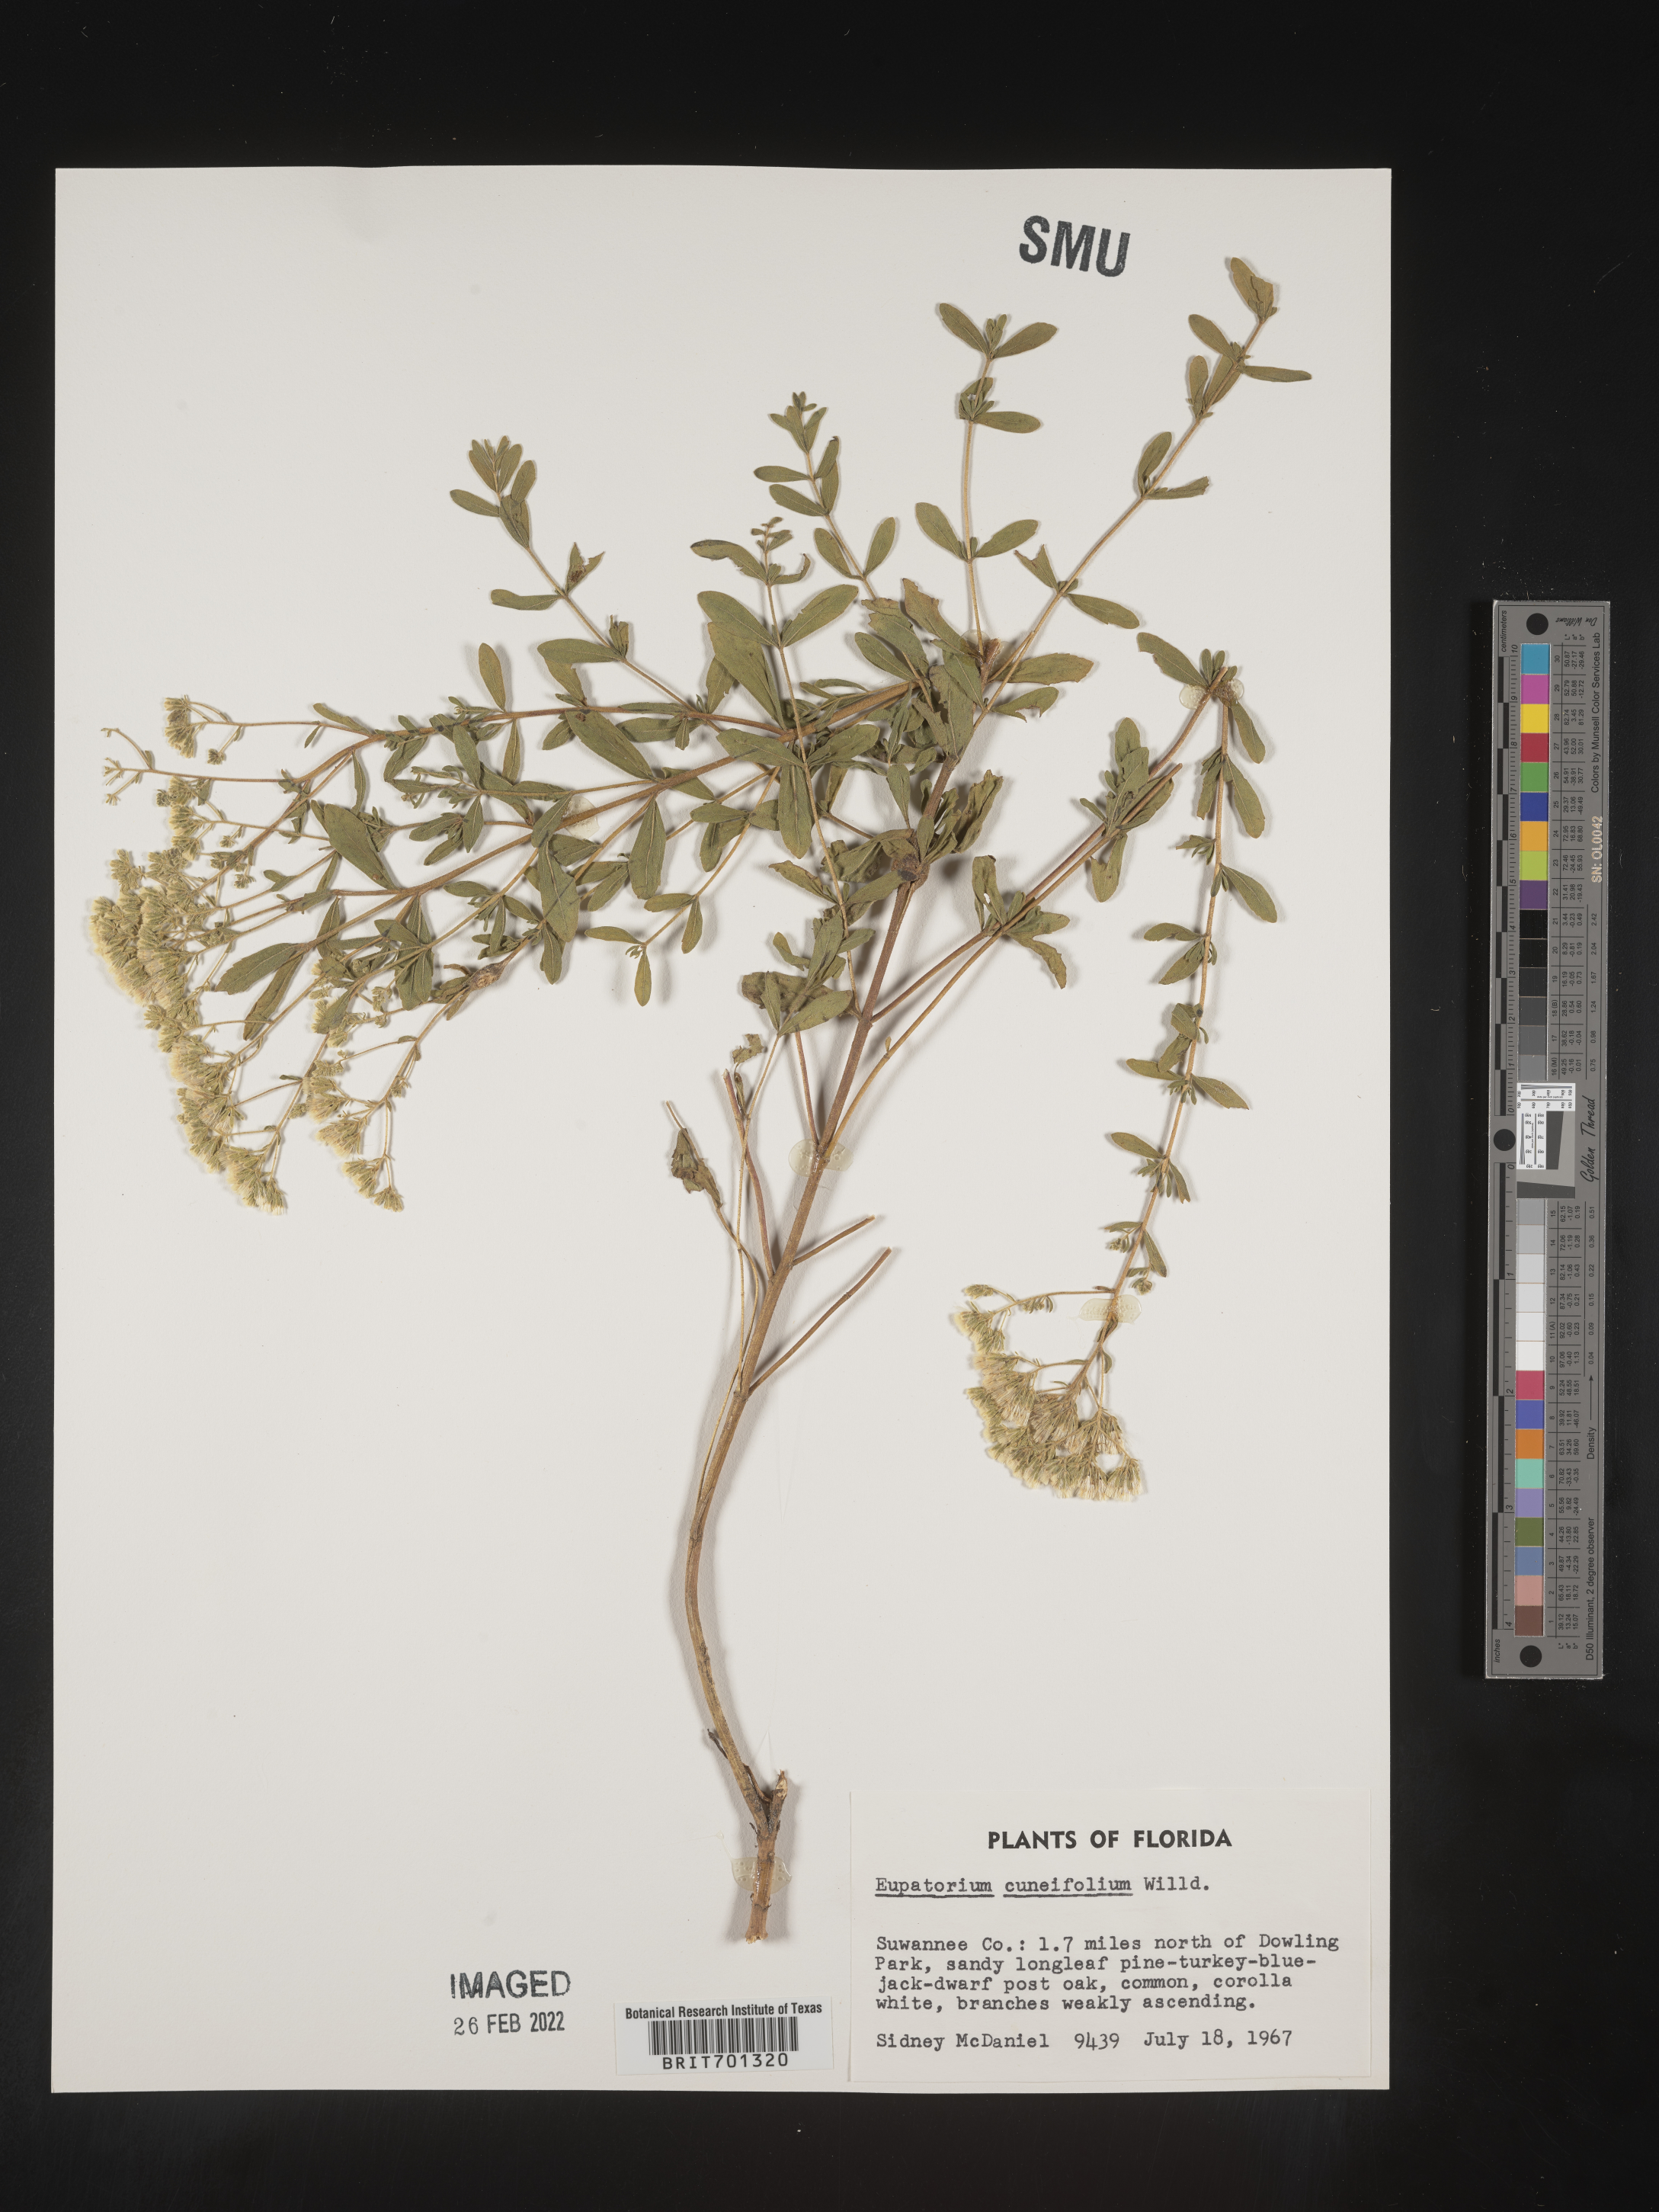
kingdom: Plantae
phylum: Tracheophyta
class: Magnoliopsida
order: Asterales
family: Asteraceae
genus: Eupatorium
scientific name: Eupatorium linearifolium
